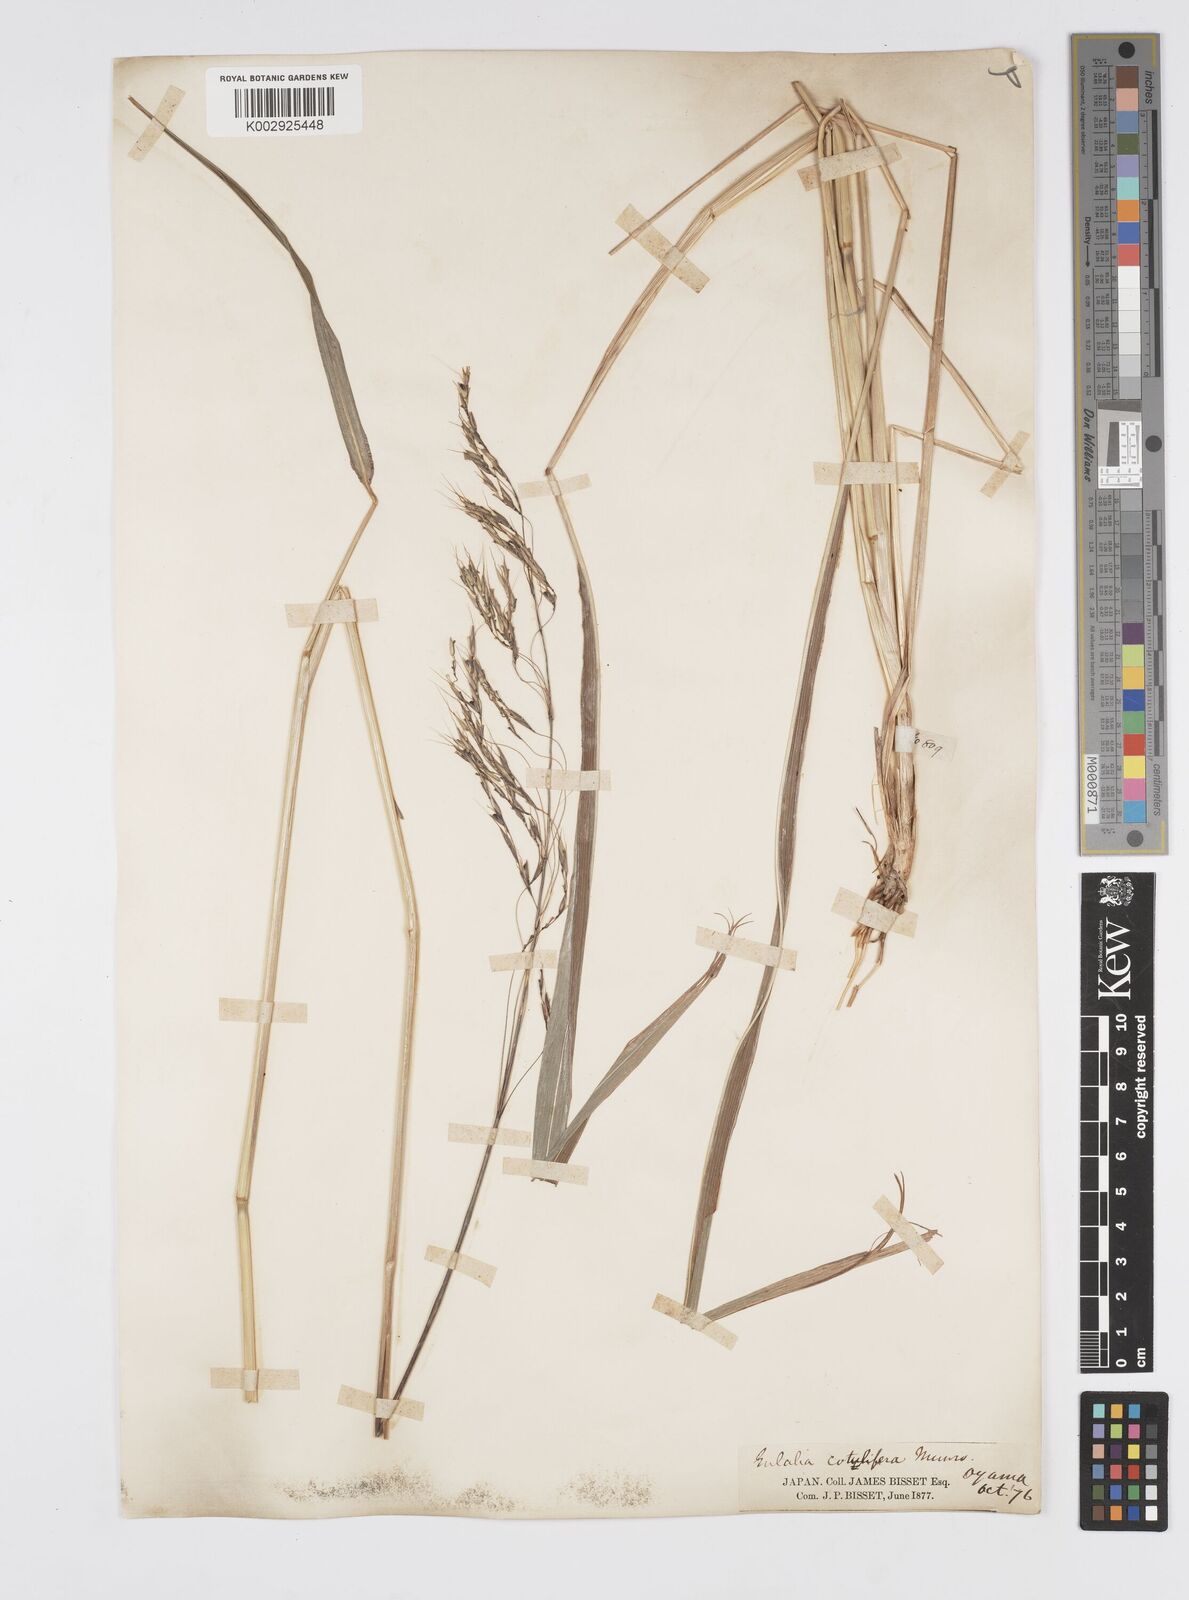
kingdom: Plantae
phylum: Tracheophyta
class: Liliopsida
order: Poales
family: Poaceae
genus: Spodiopogon
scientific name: Spodiopogon cotulifer
